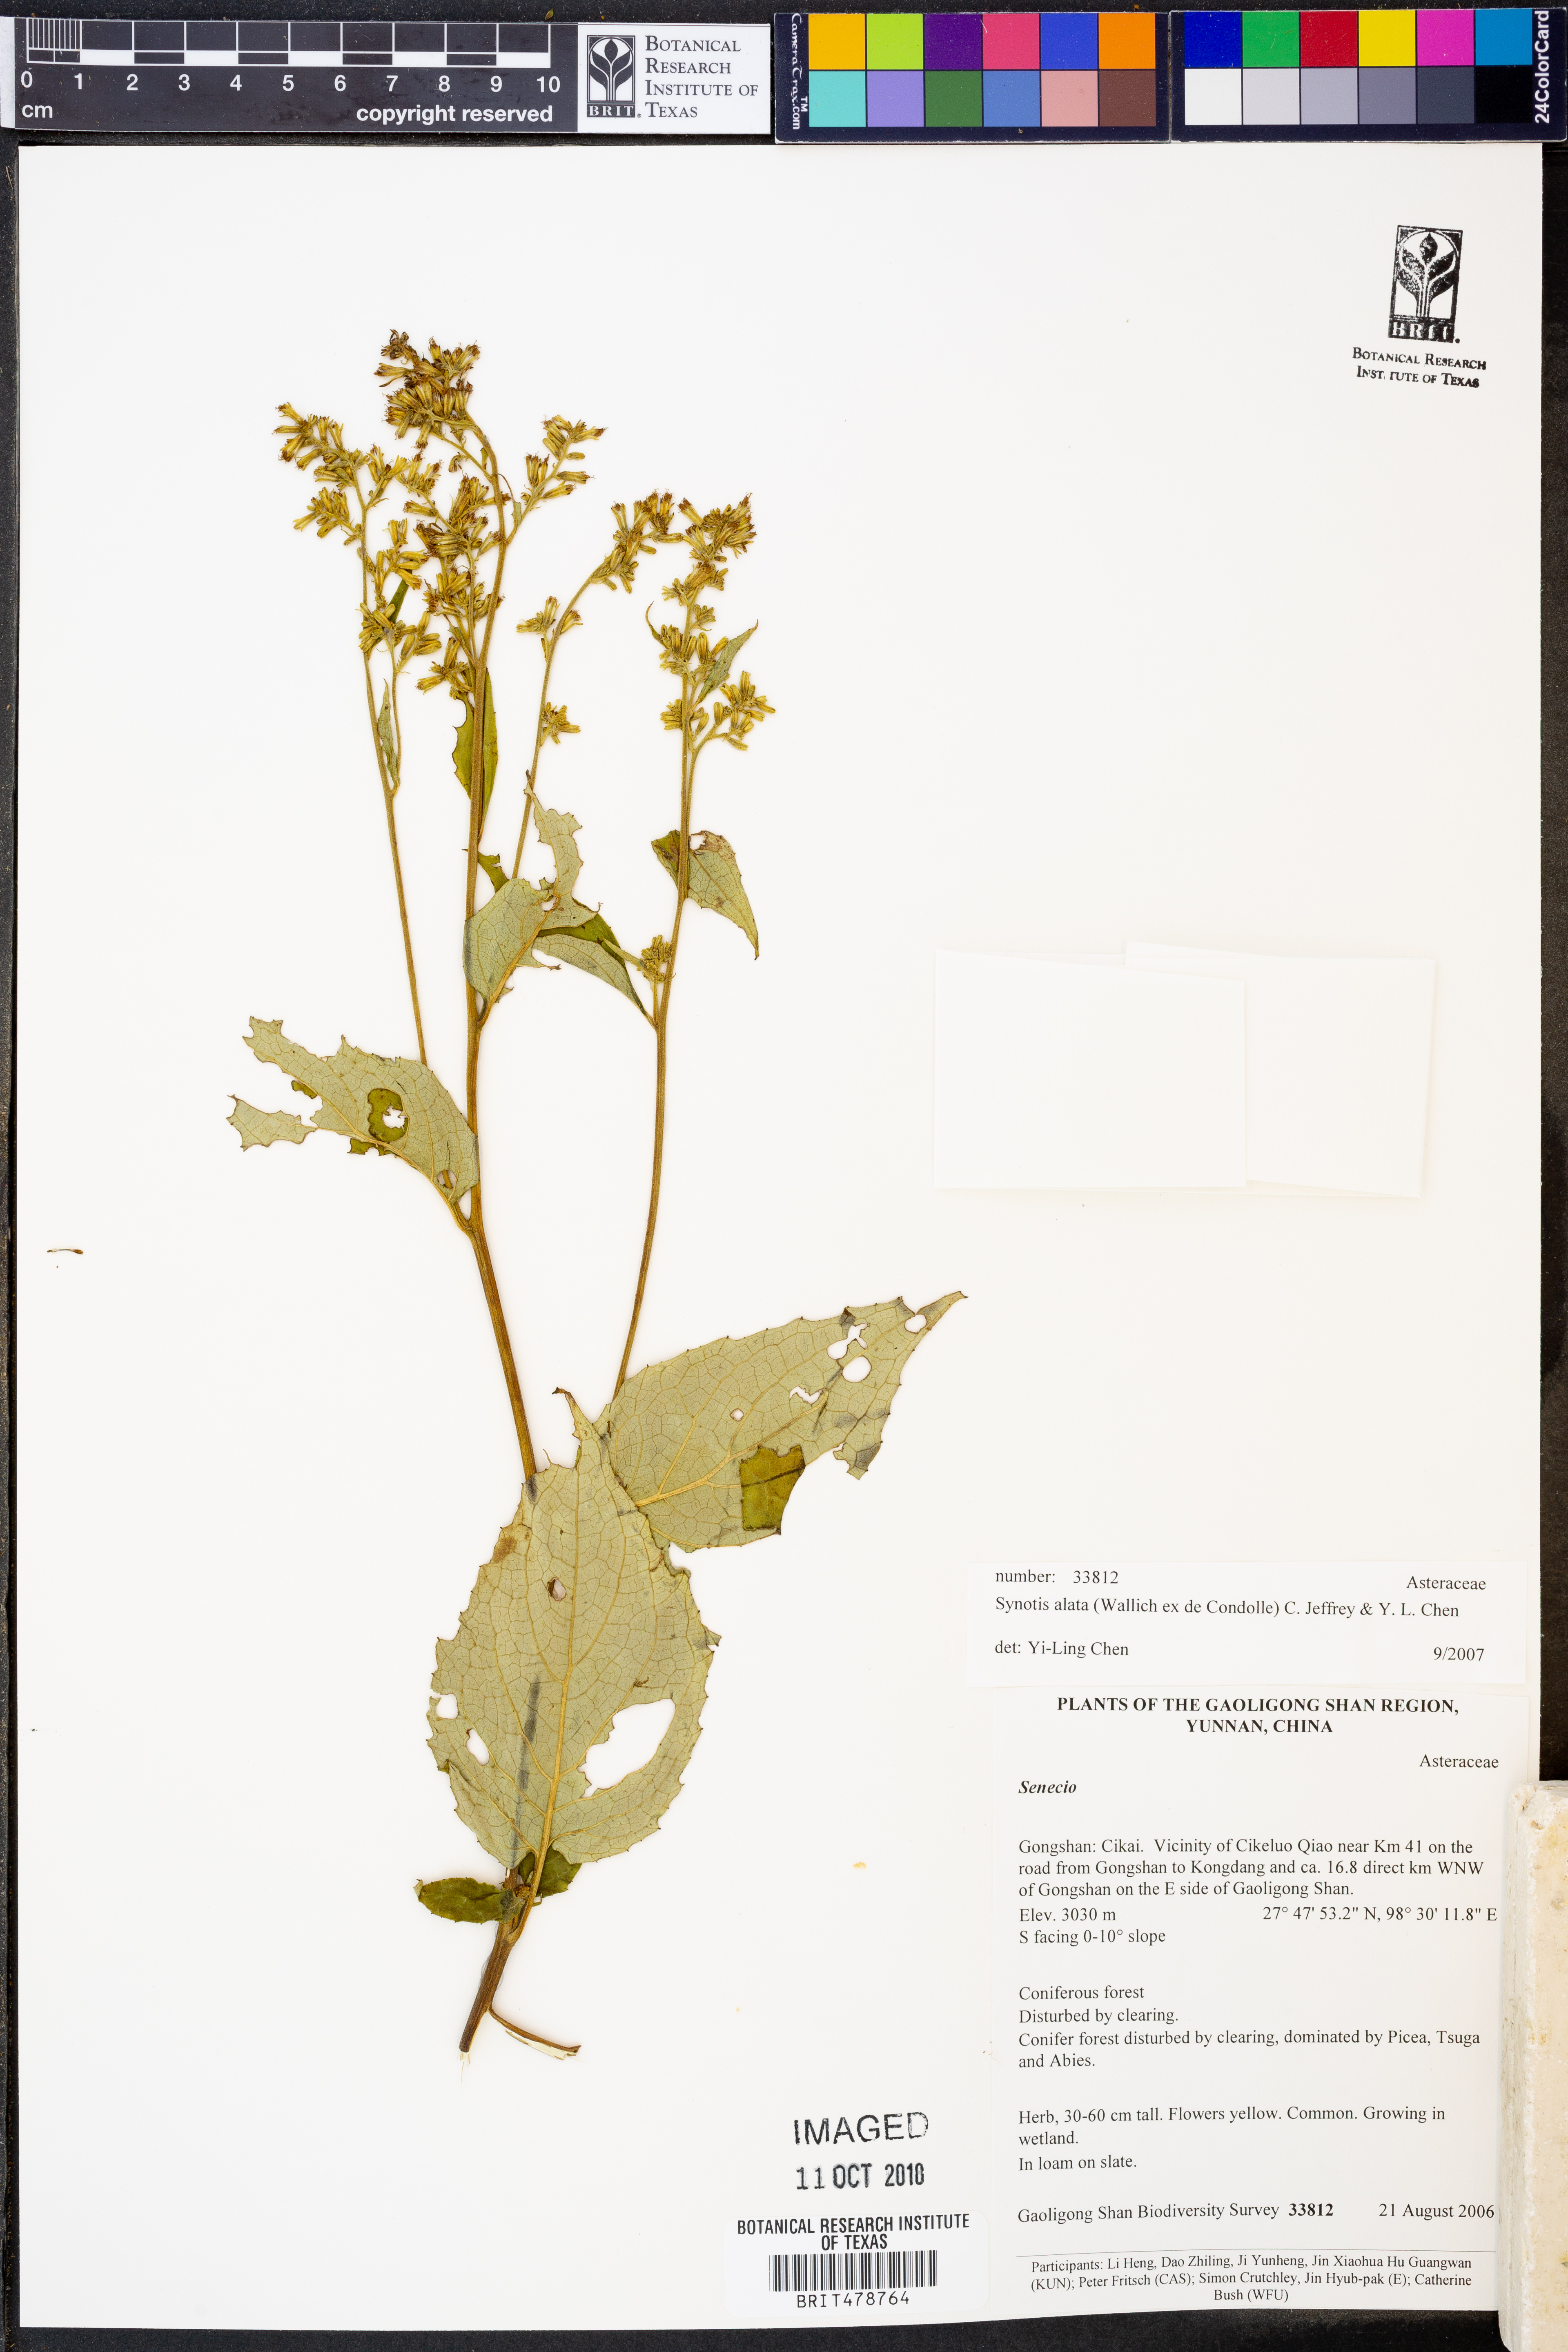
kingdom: Plantae
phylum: Tracheophyta
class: Magnoliopsida
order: Asterales
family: Asteraceae
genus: Synotis
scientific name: Synotis alata
